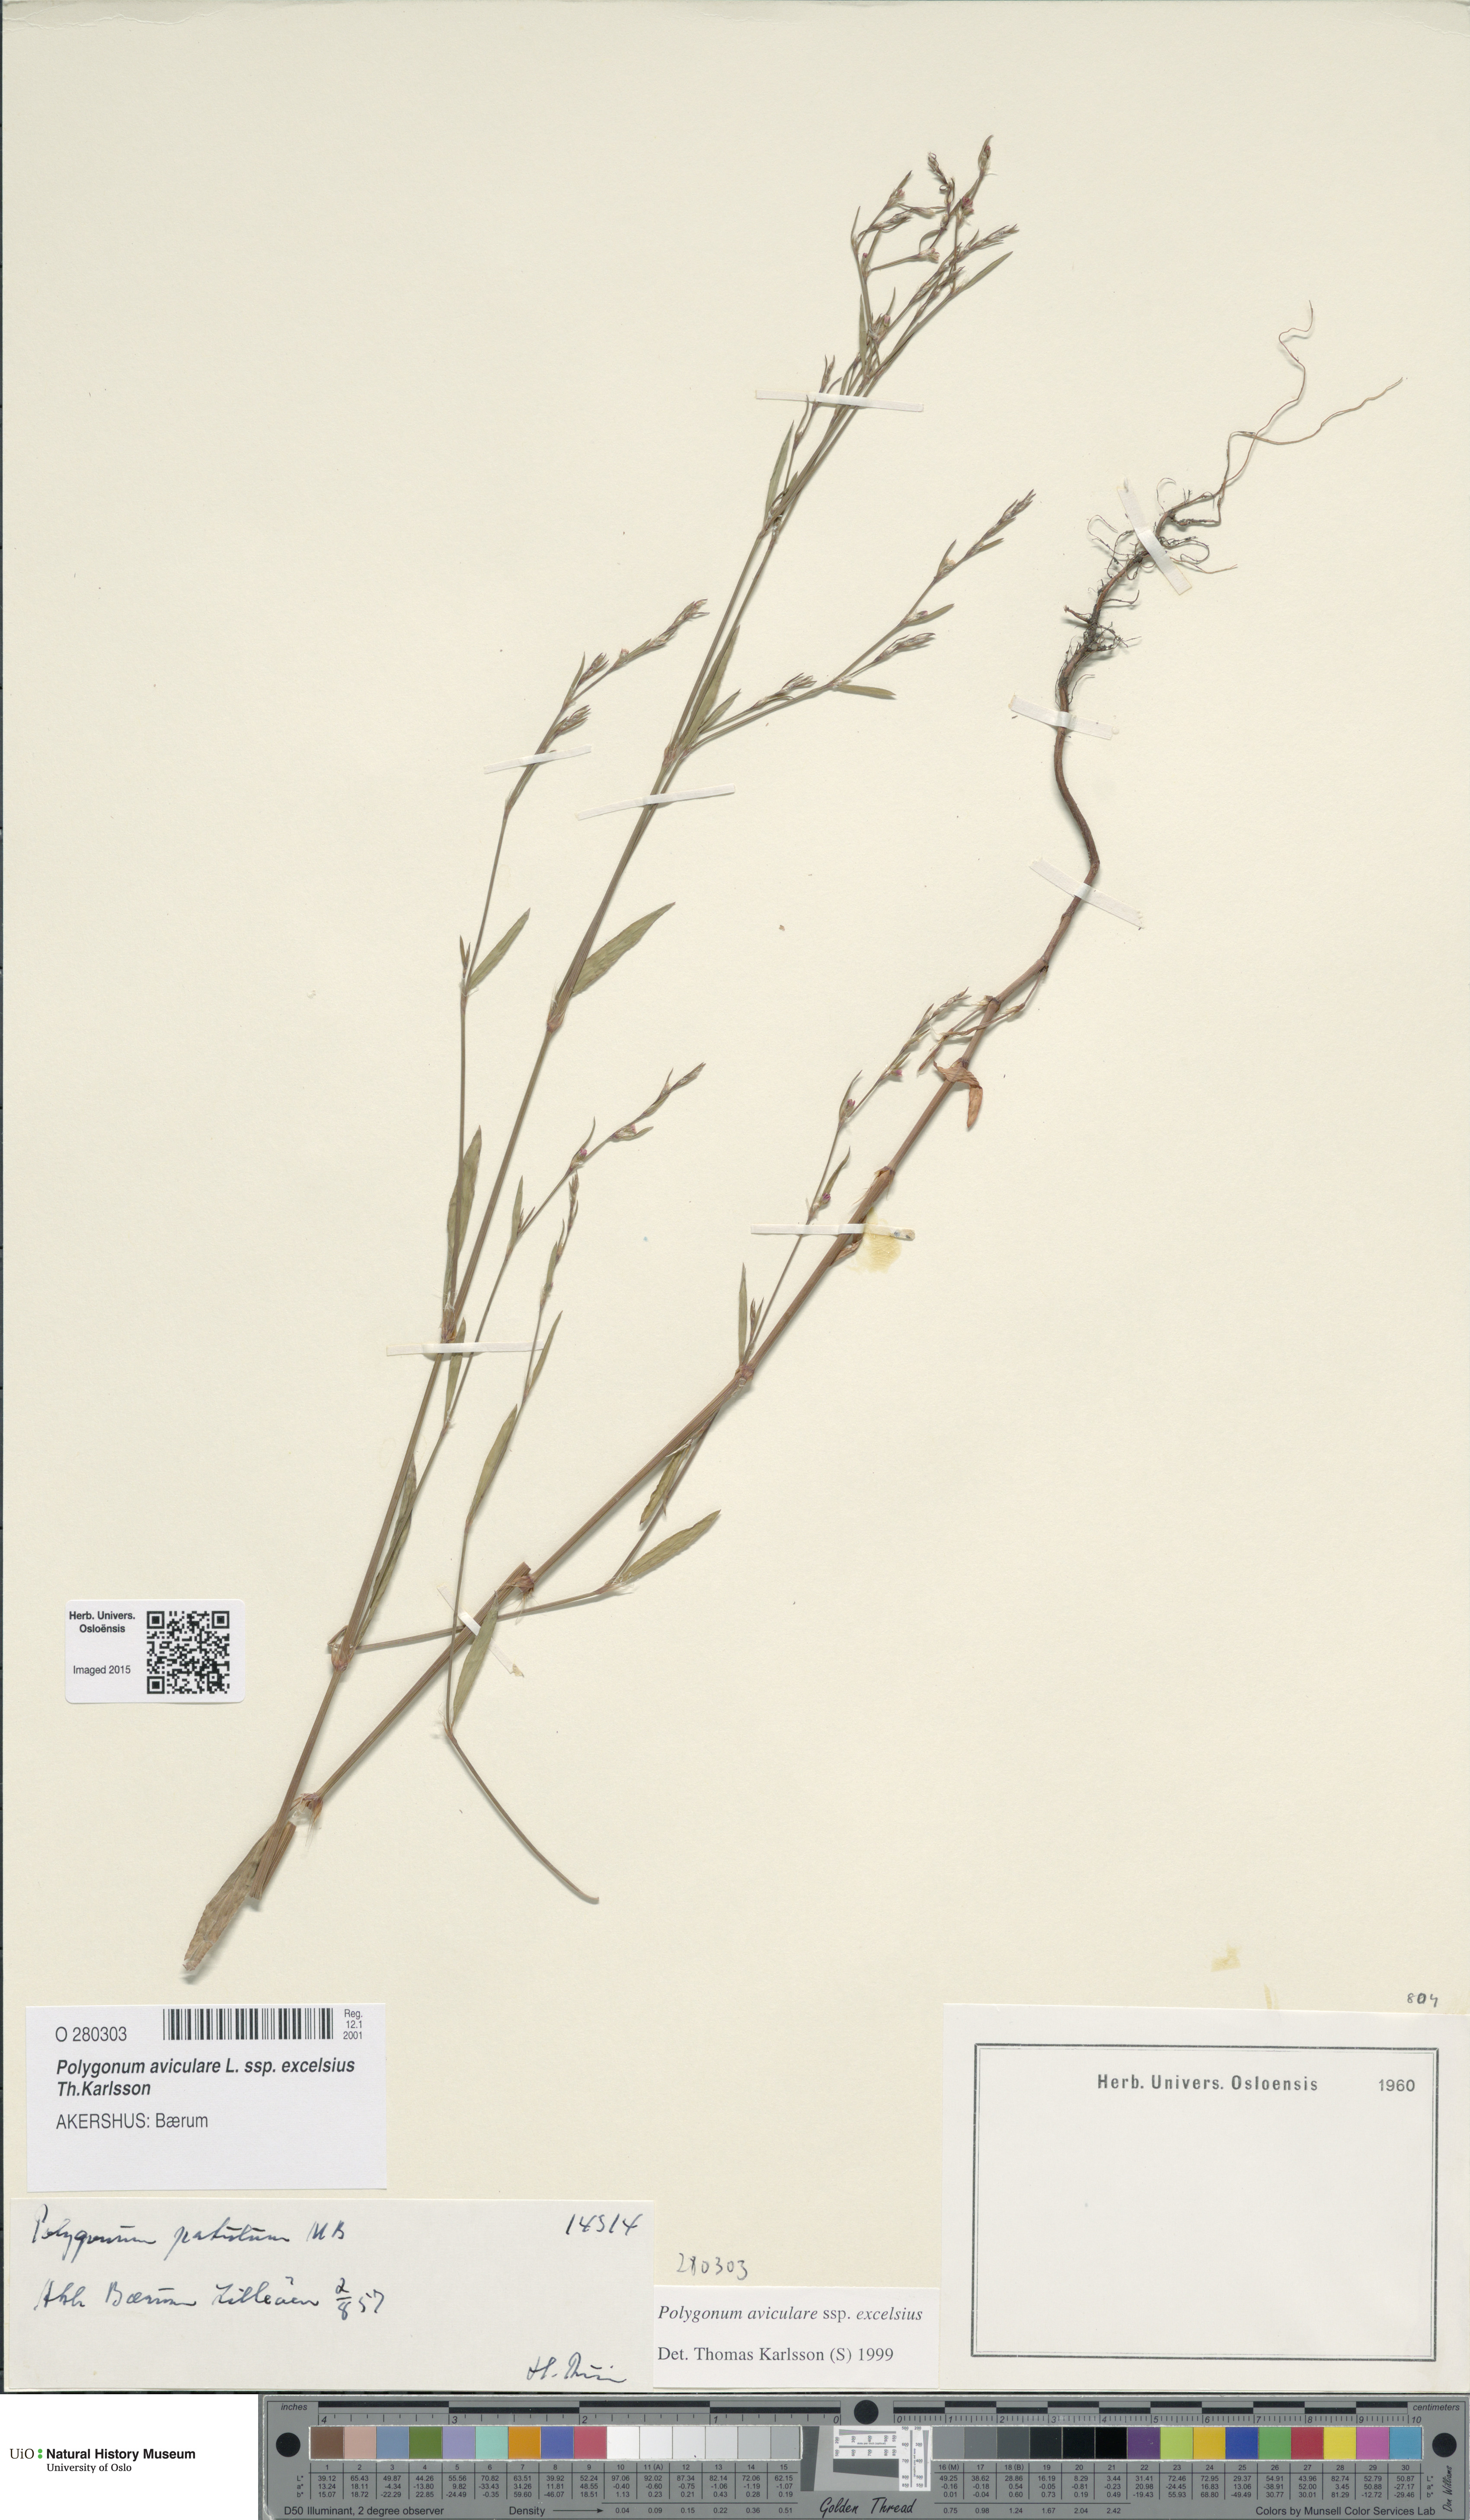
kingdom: Plantae
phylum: Tracheophyta
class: Magnoliopsida
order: Caryophyllales
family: Polygonaceae
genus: Polygonum
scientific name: Polygonum excelsius
